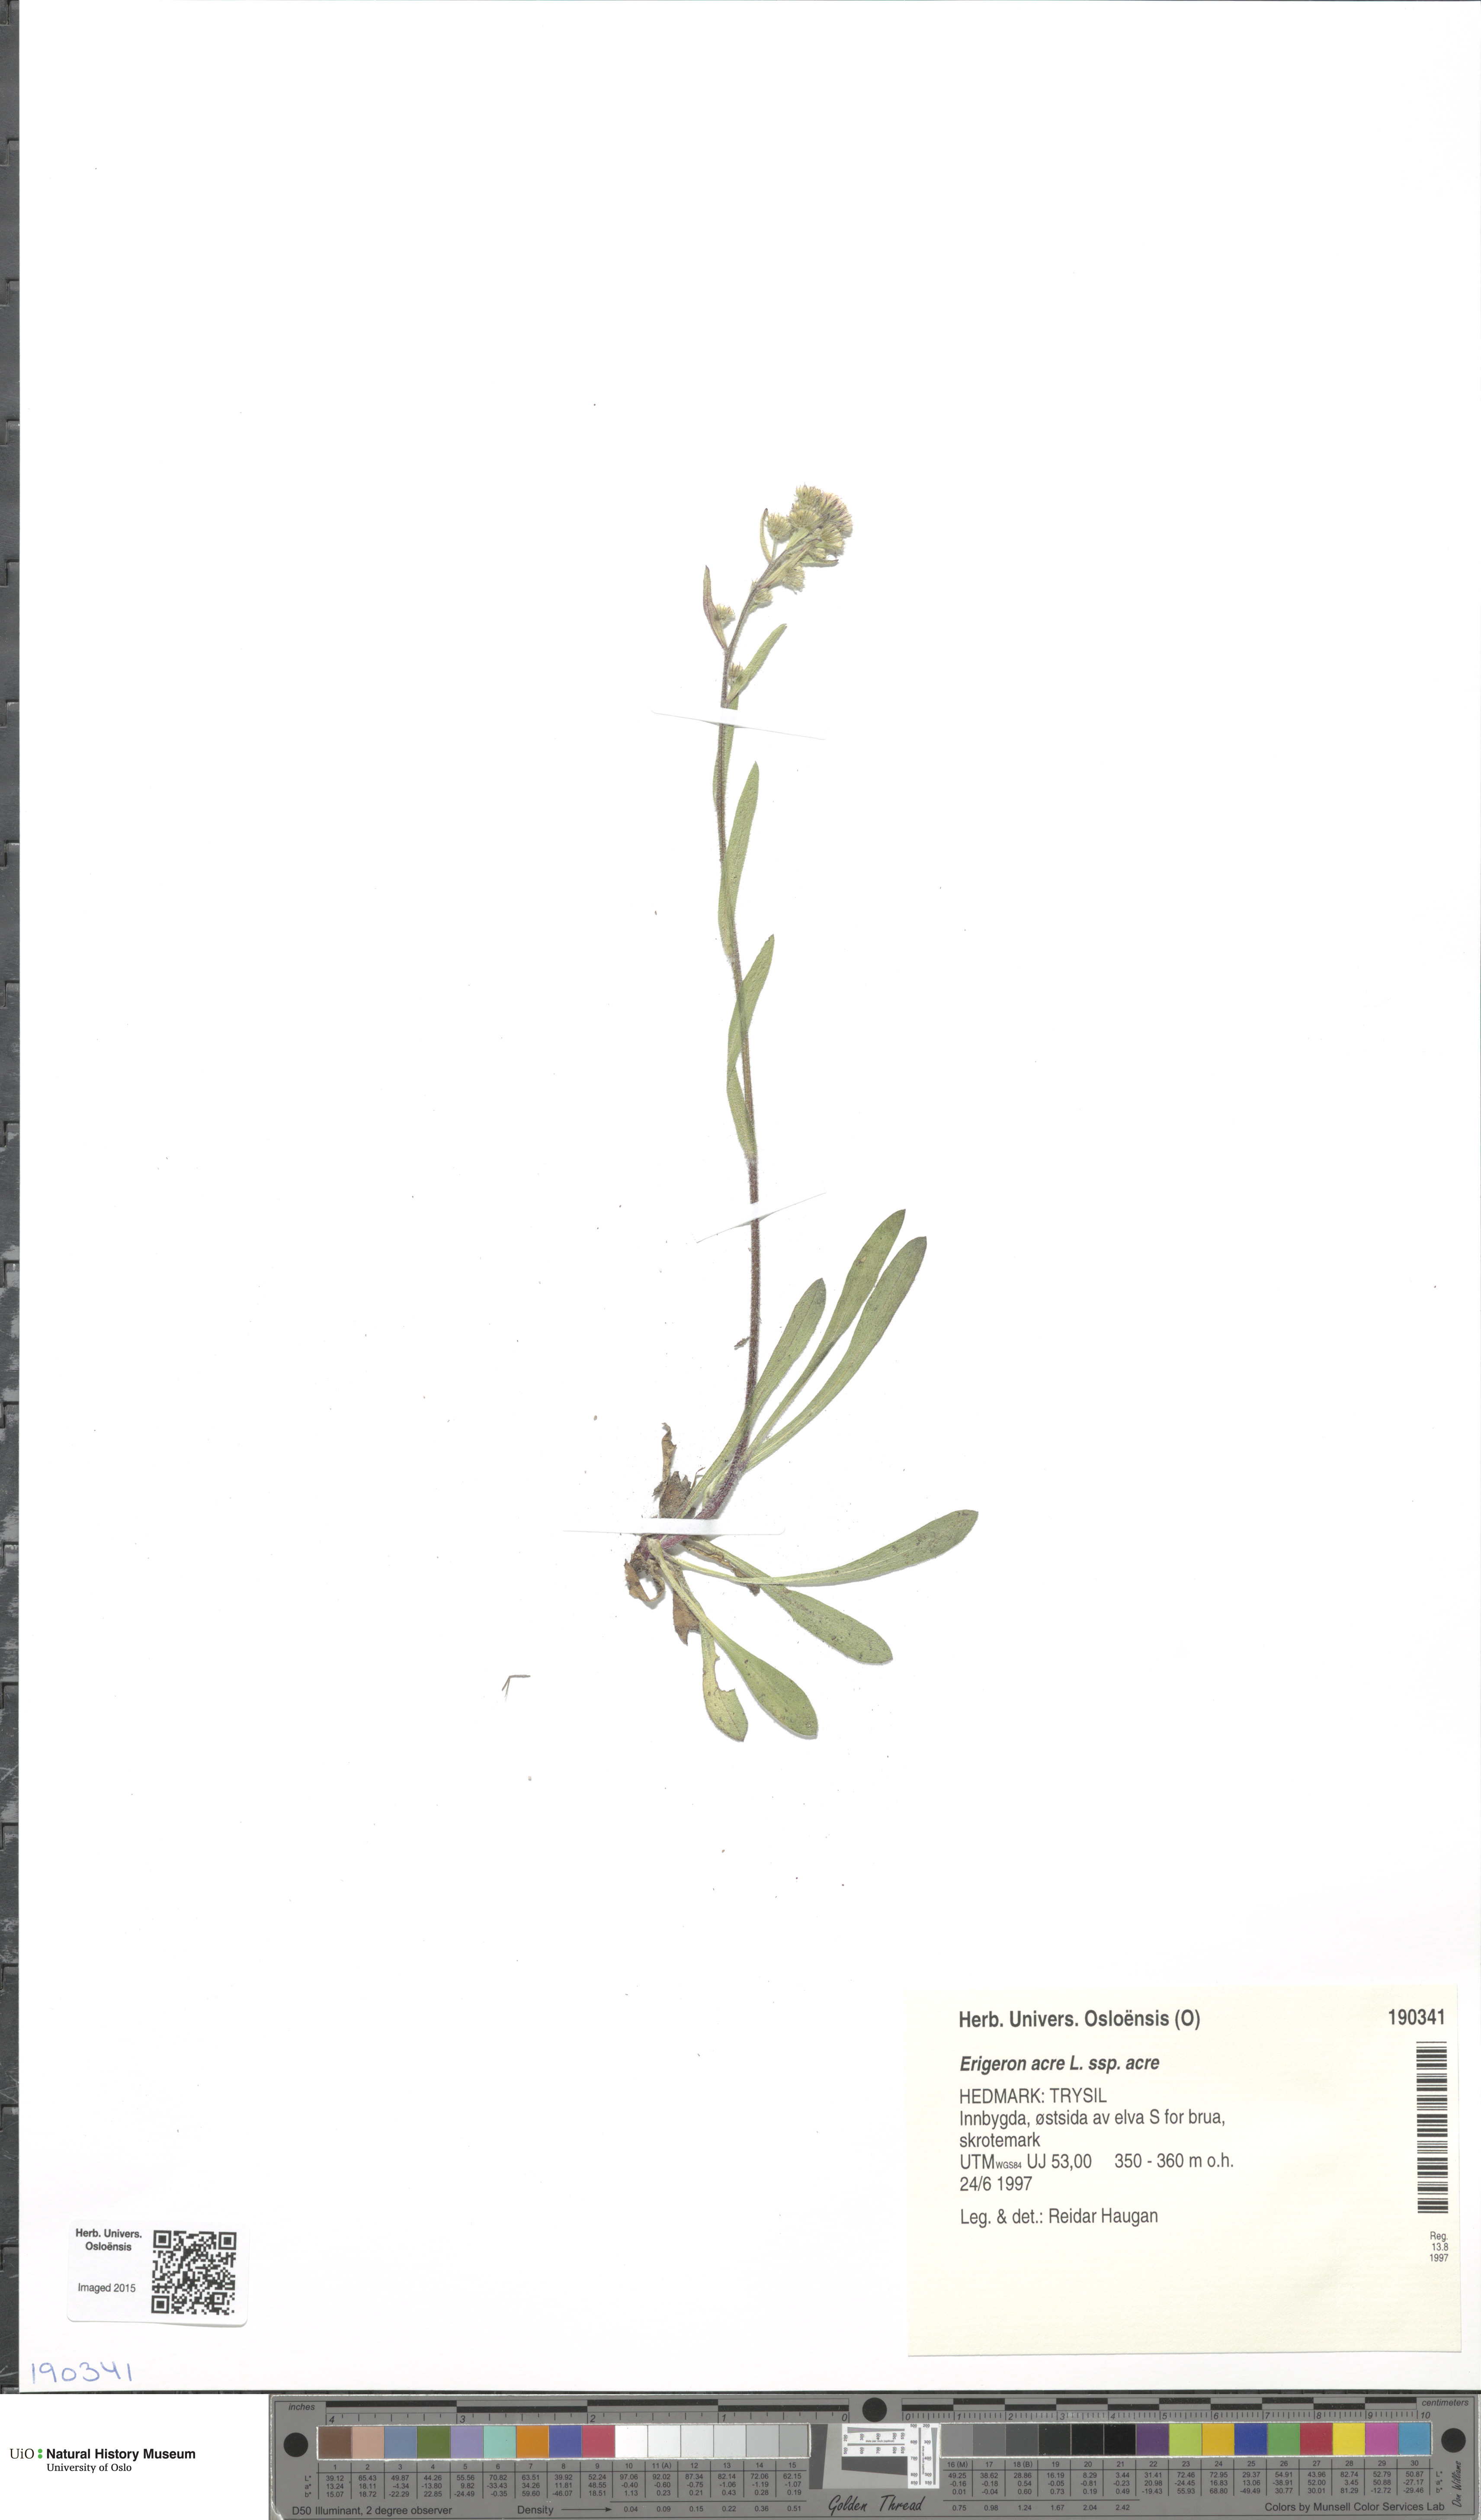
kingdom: Plantae
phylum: Tracheophyta
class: Magnoliopsida
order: Asterales
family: Asteraceae
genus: Erigeron
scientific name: Erigeron acris
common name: Blue fleabane
